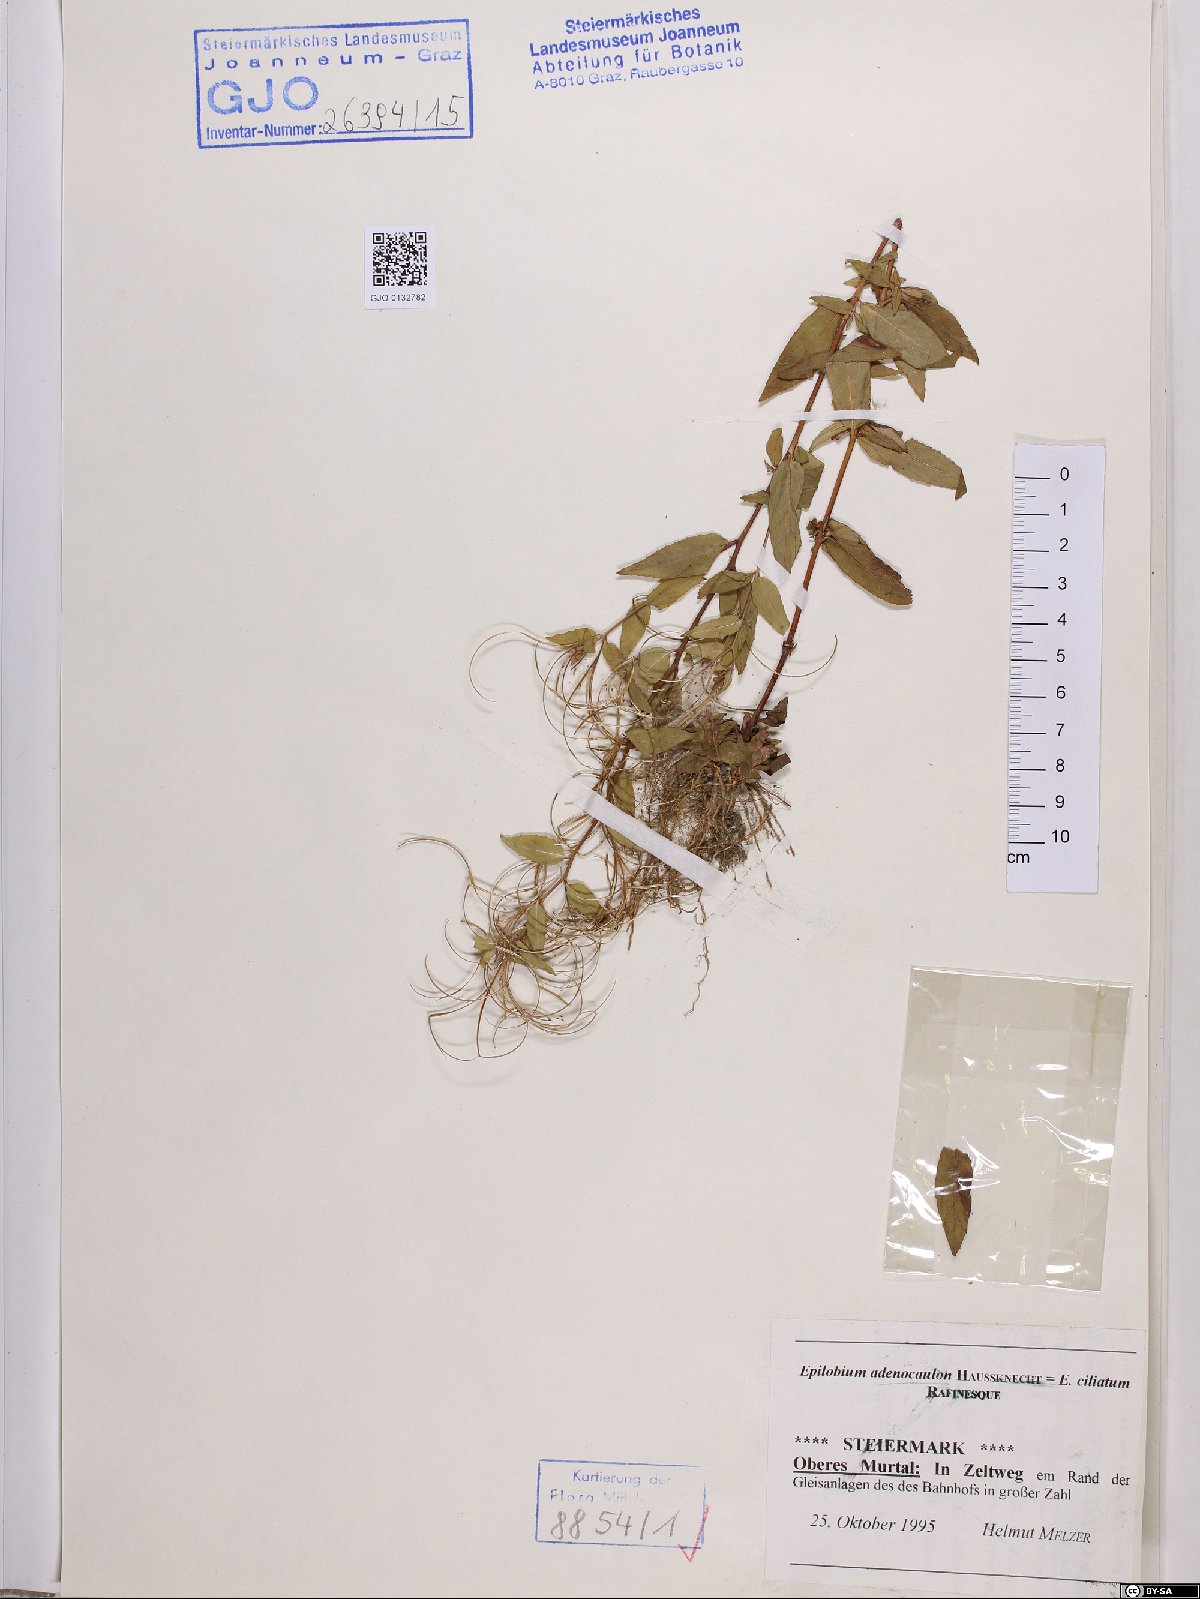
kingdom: Plantae
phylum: Tracheophyta
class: Magnoliopsida
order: Myrtales
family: Onagraceae
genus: Epilobium
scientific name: Epilobium ciliatum
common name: American willowherb
